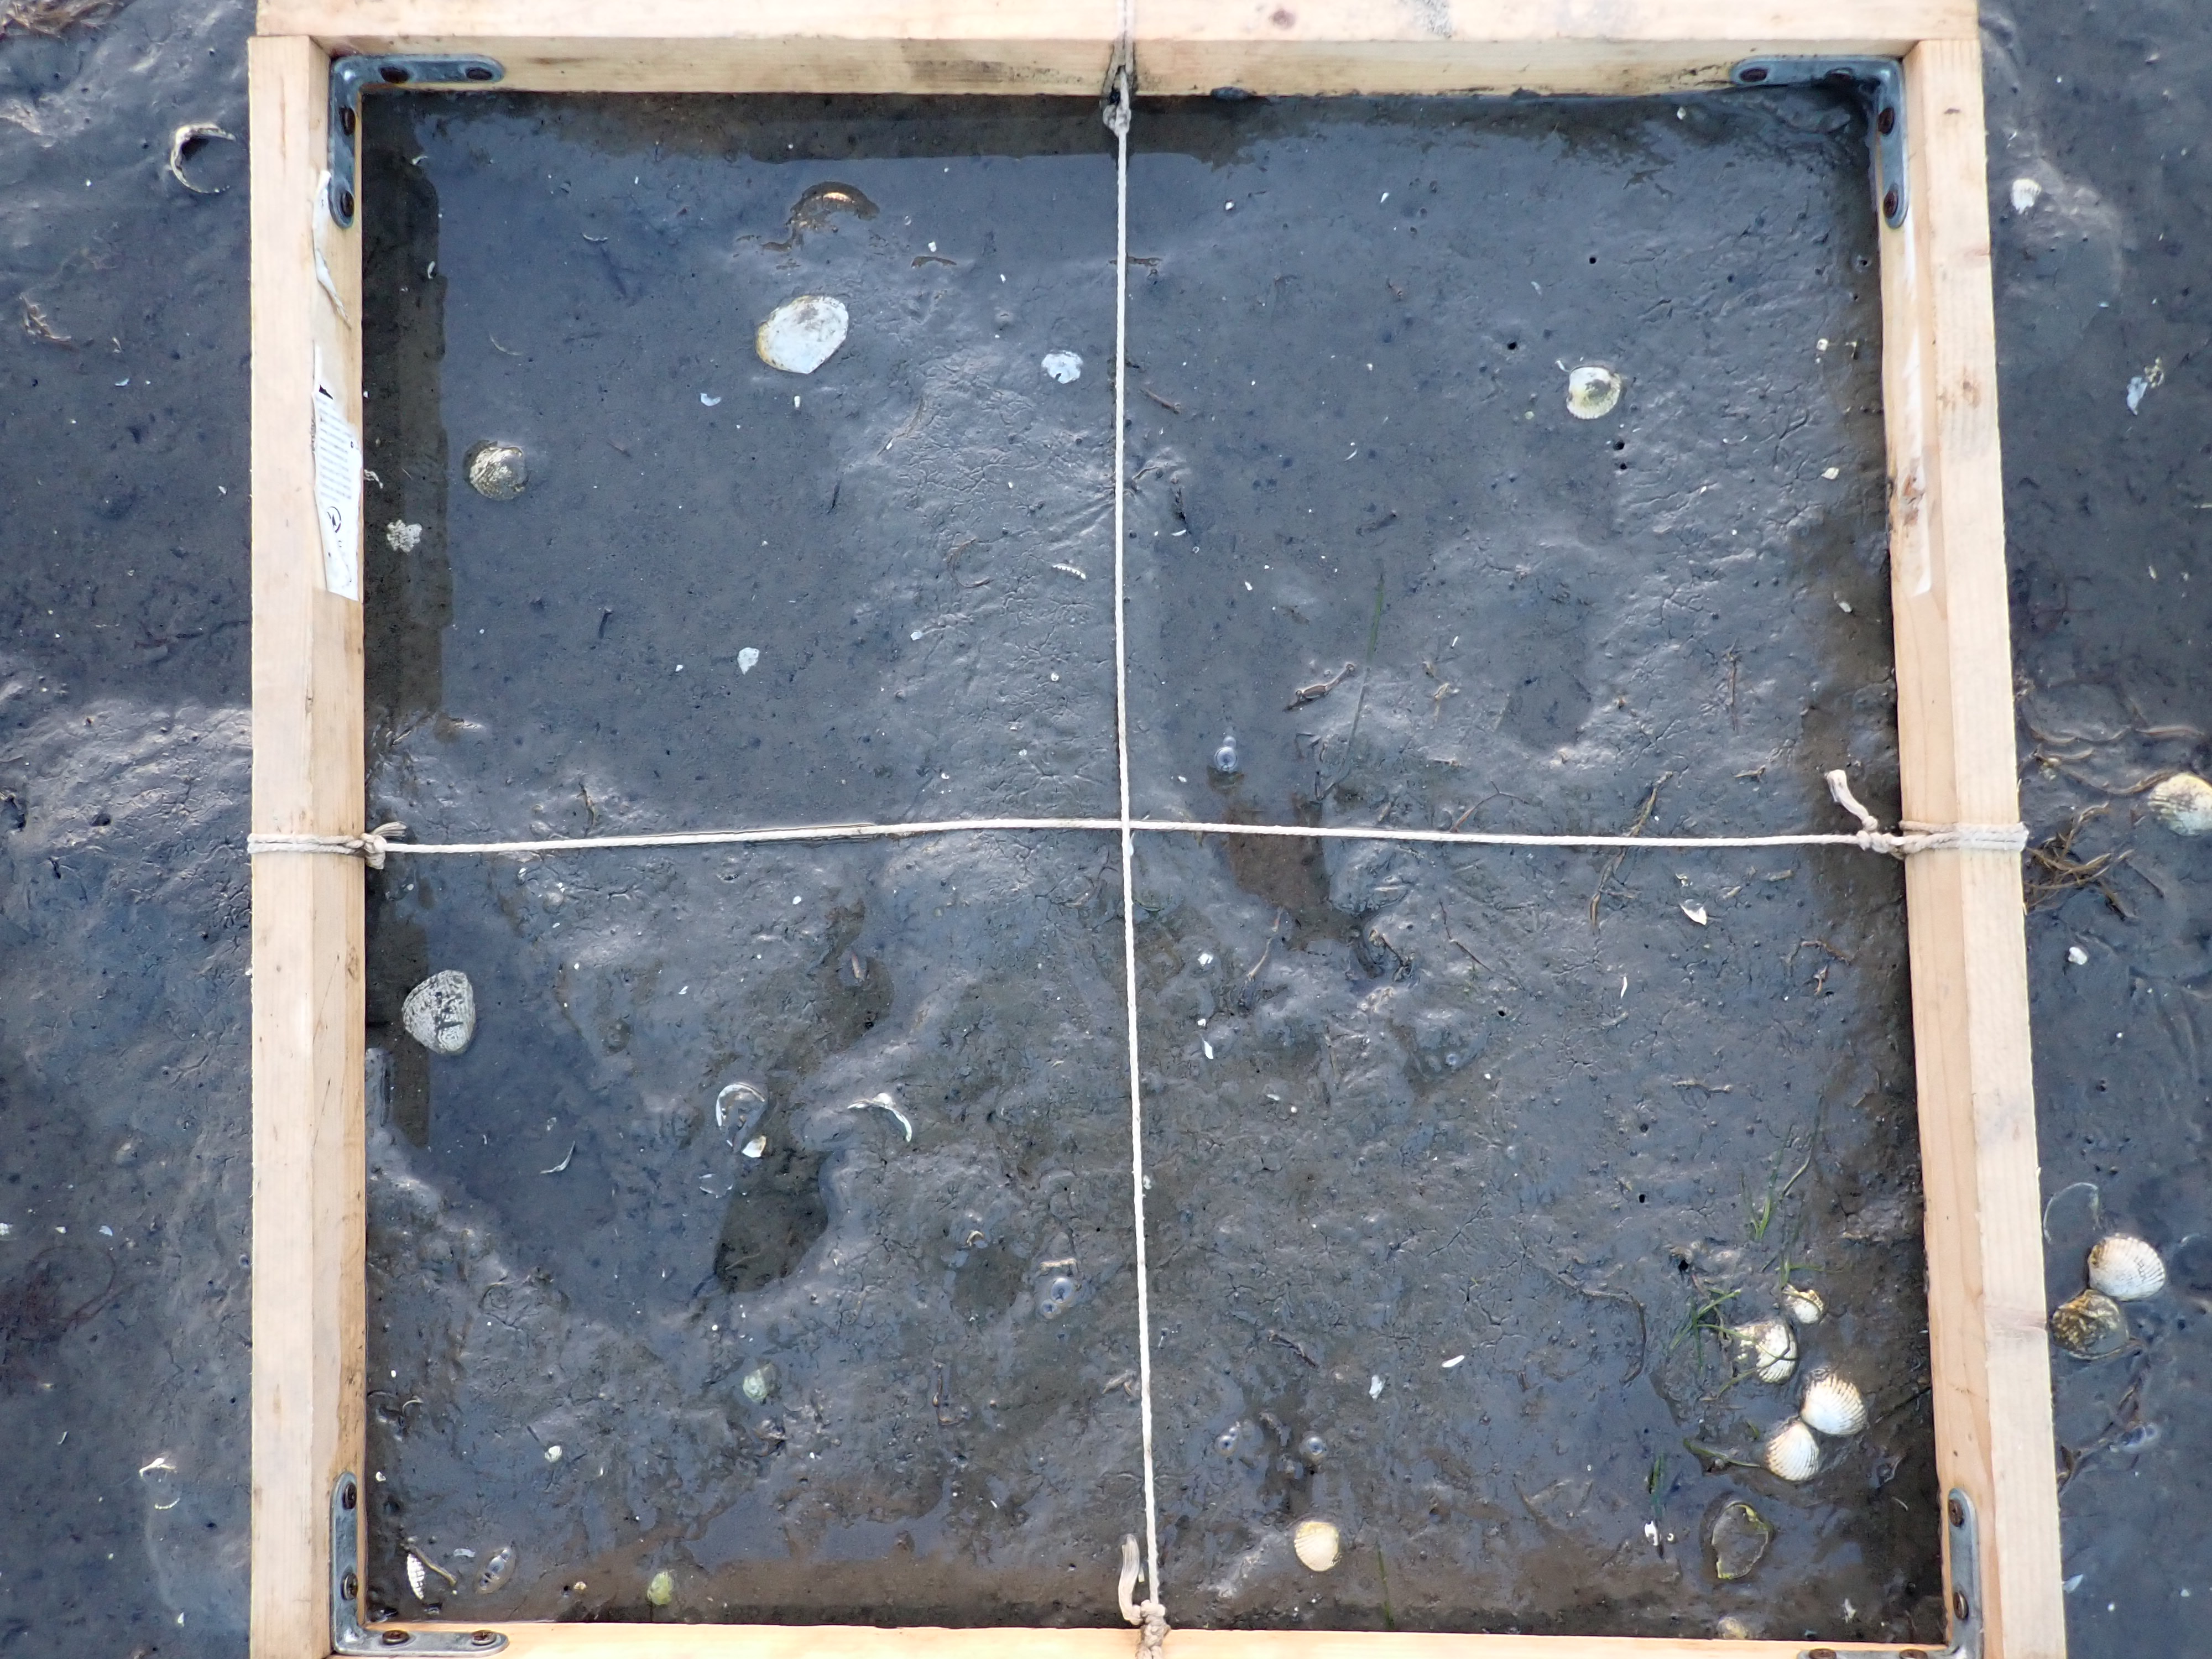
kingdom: Plantae
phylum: Tracheophyta
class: Liliopsida
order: Alismatales
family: Zosteraceae
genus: Zostera
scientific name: Zostera noltii
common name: Dwarf eelgrass
